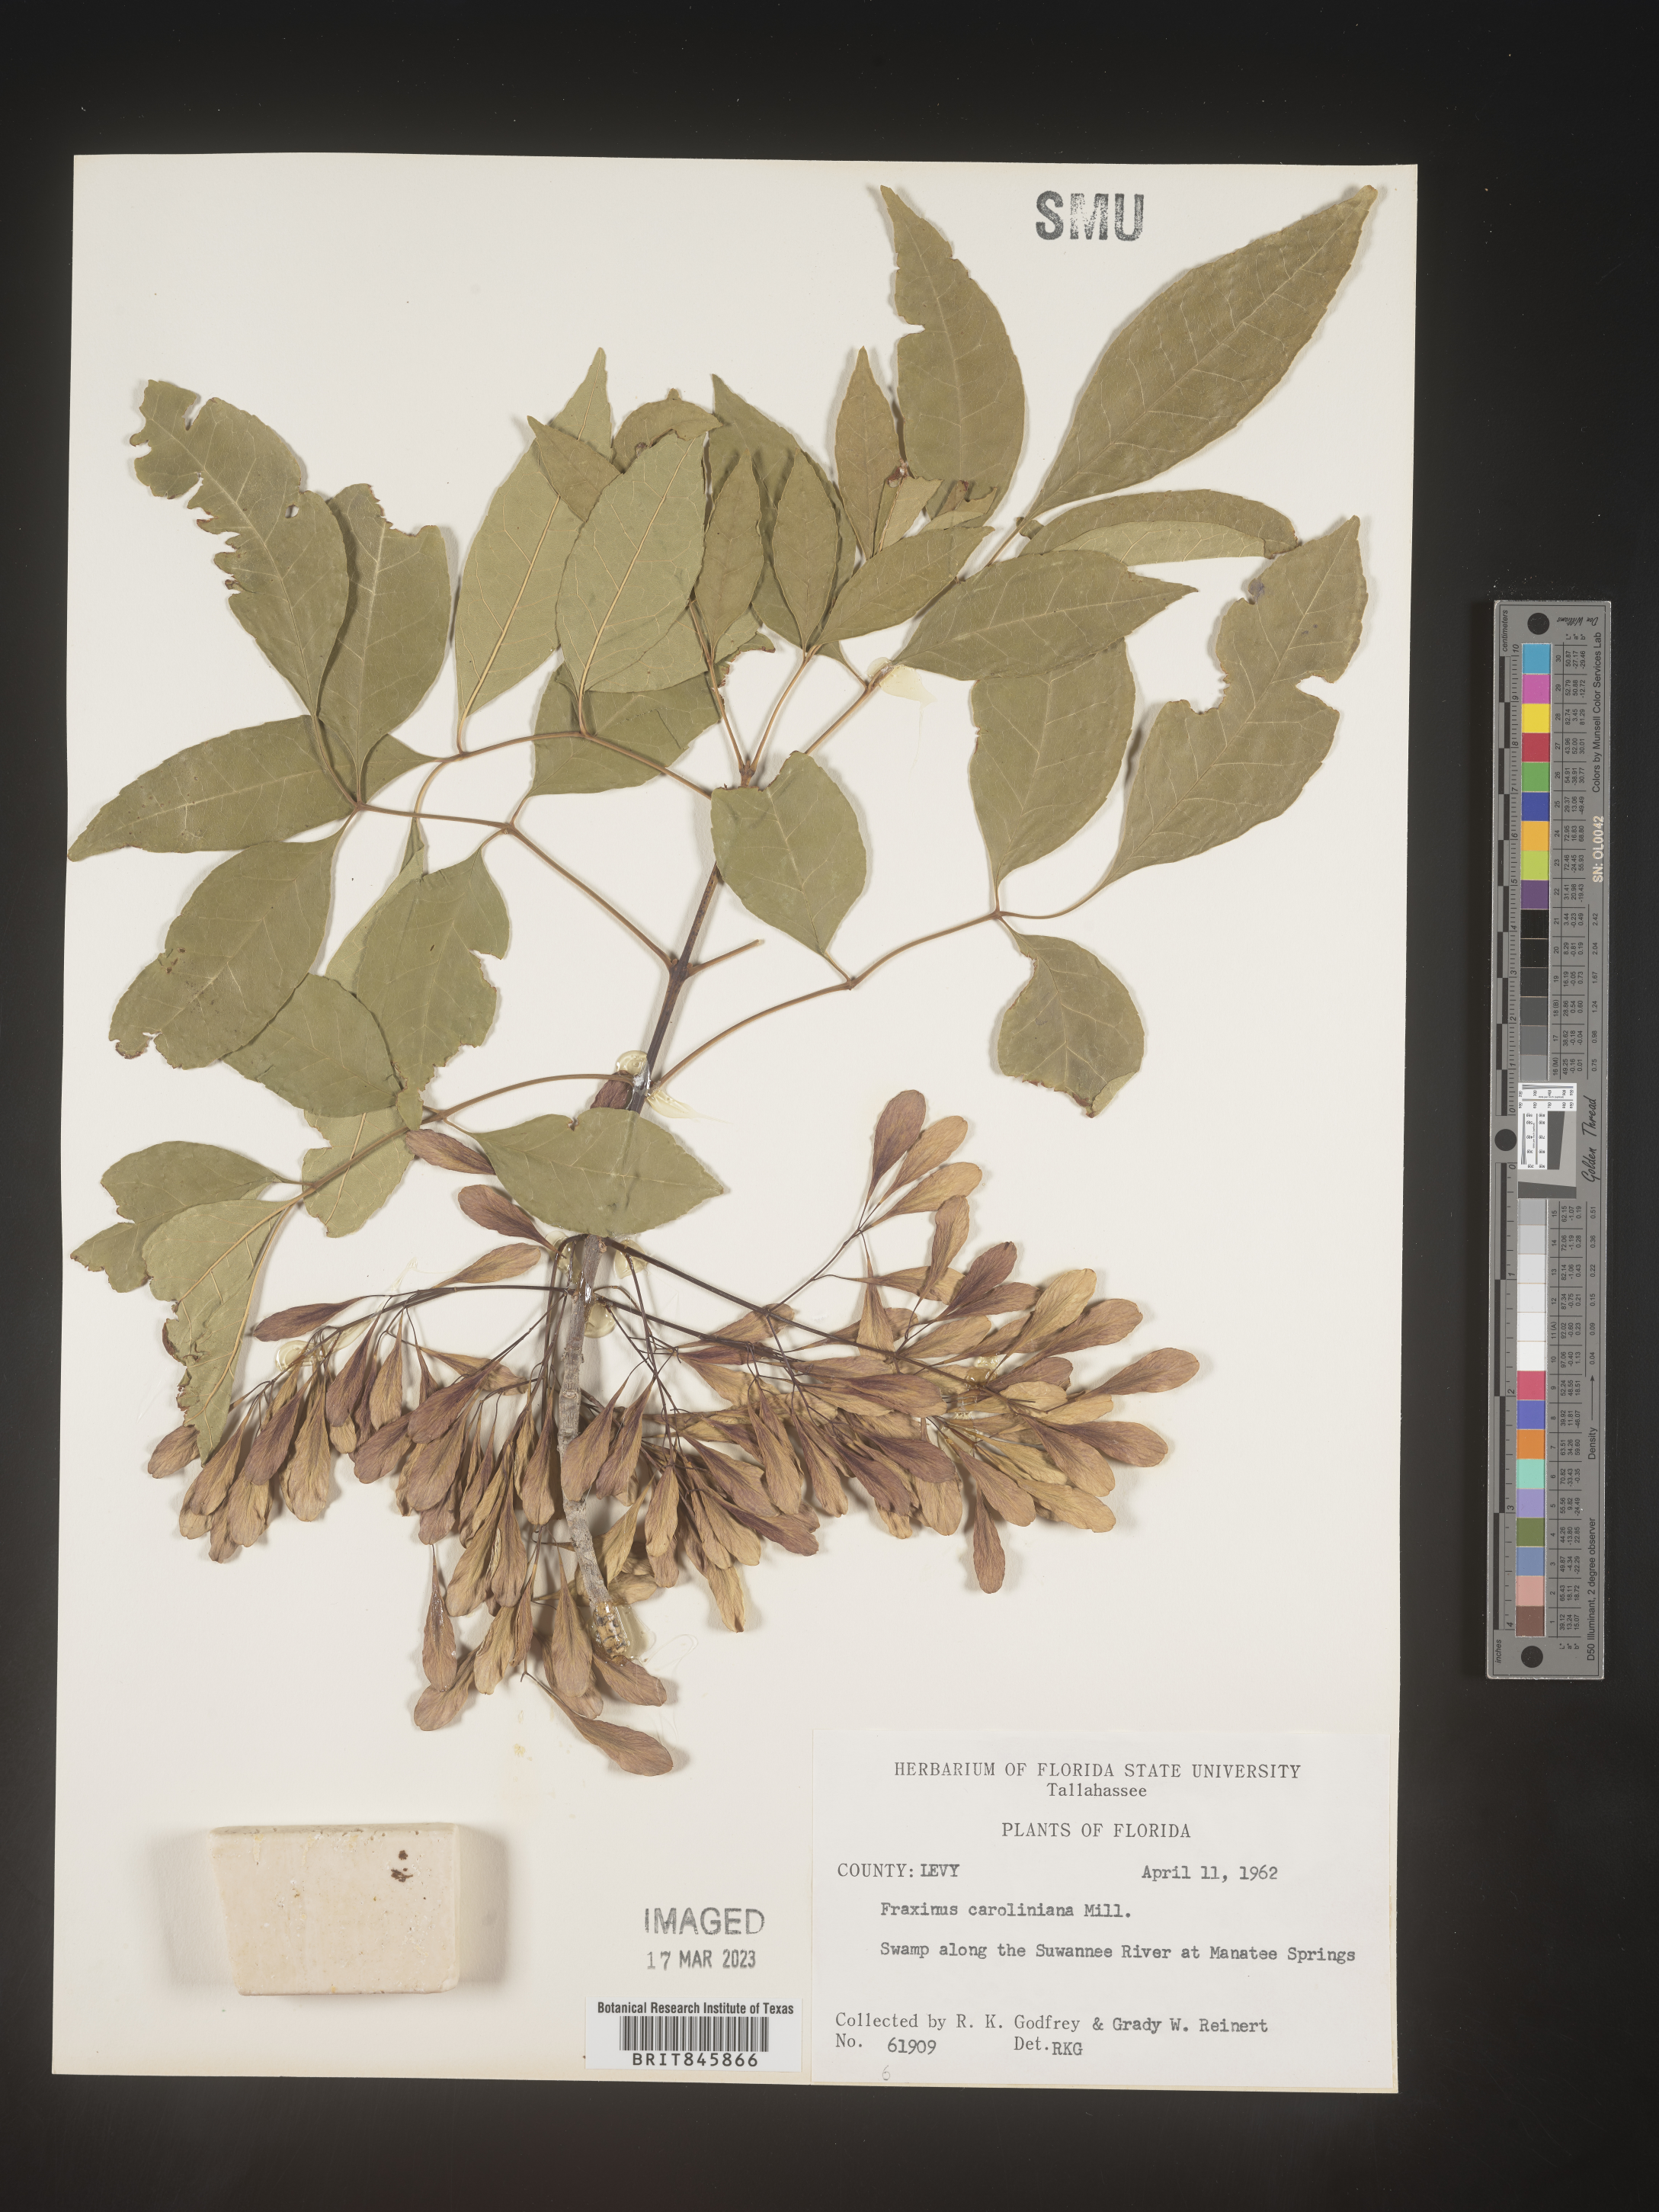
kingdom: Plantae
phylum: Tracheophyta
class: Magnoliopsida
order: Lamiales
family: Oleaceae
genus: Fraxinus
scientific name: Fraxinus caroliniana
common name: Carolina ash
